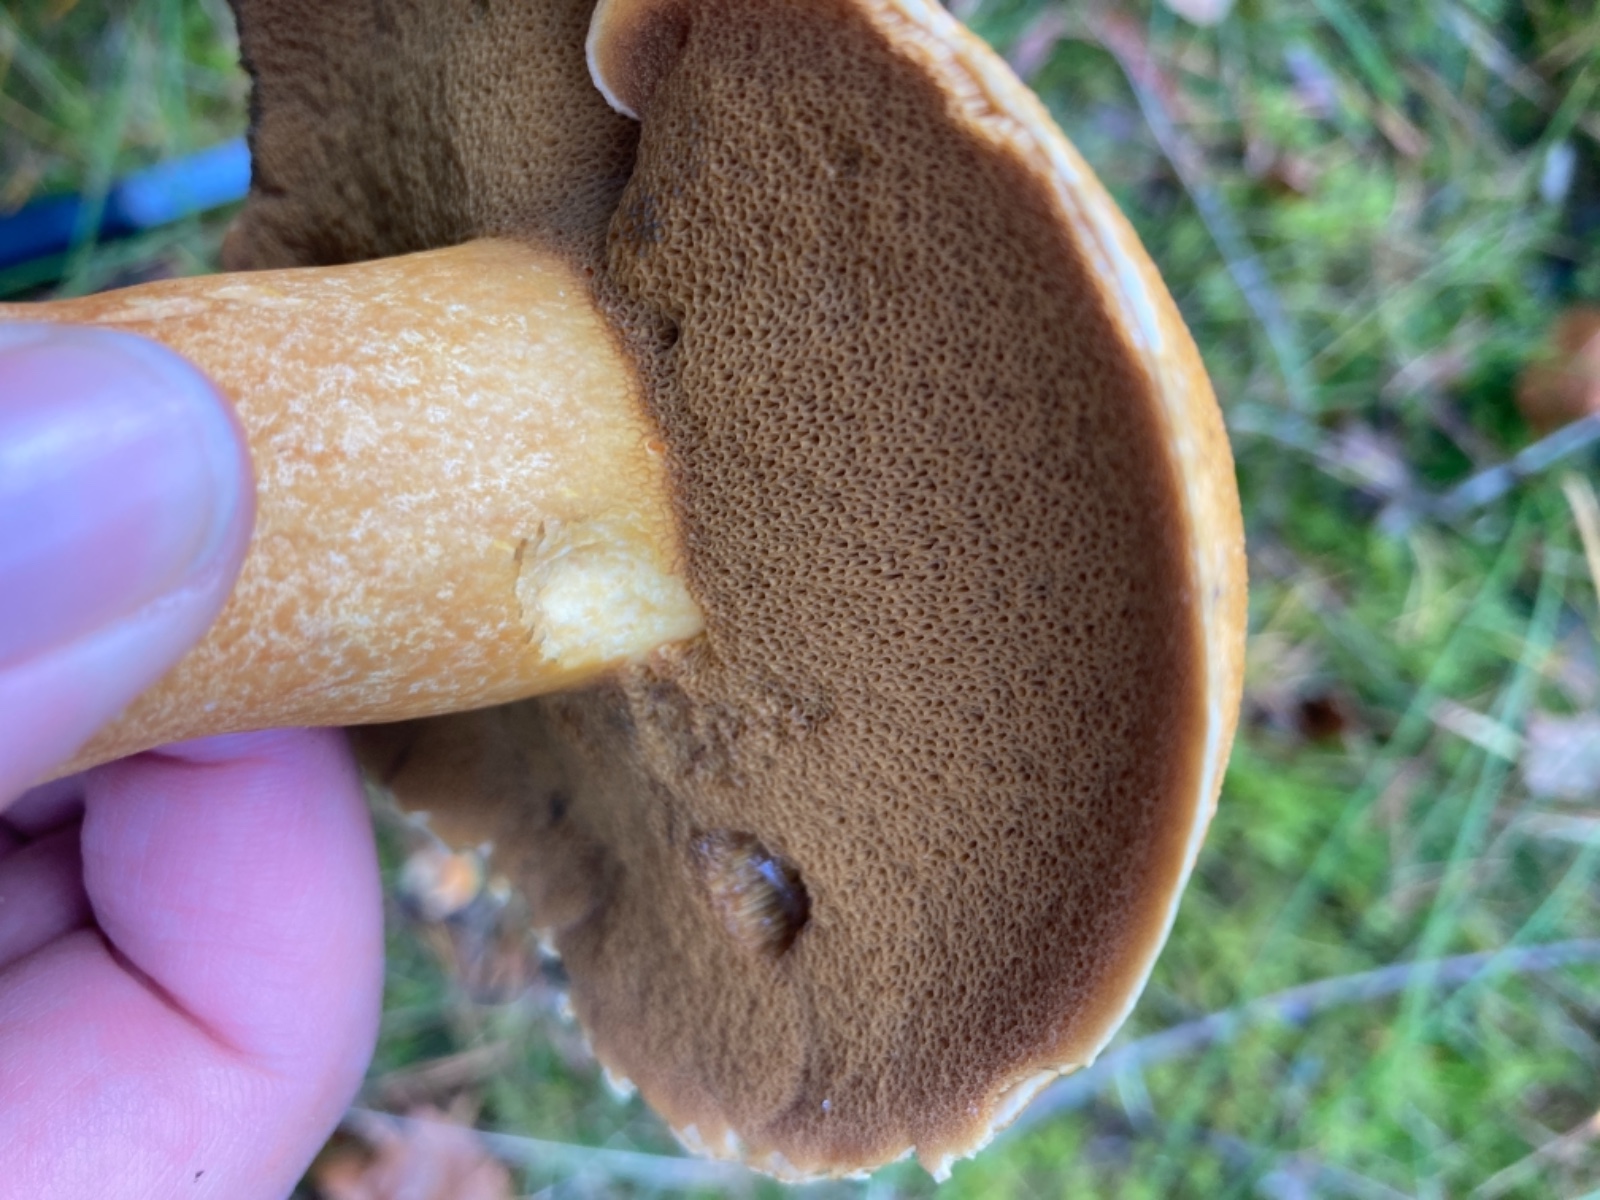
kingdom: Fungi
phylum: Basidiomycota
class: Agaricomycetes
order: Boletales
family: Suillaceae
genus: Suillus
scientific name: Suillus variegatus
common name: broget slimrørhat
